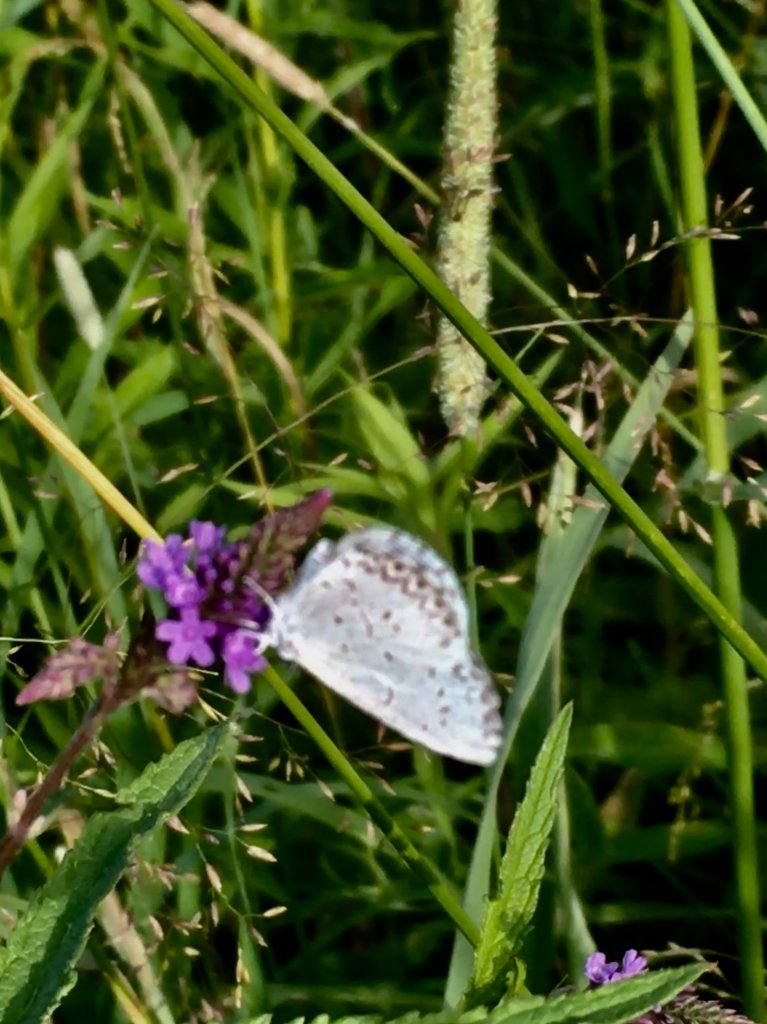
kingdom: Animalia
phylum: Arthropoda
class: Insecta
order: Lepidoptera
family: Lycaenidae
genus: Celastrina
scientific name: Celastrina lucia
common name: Northern Spring Azure
